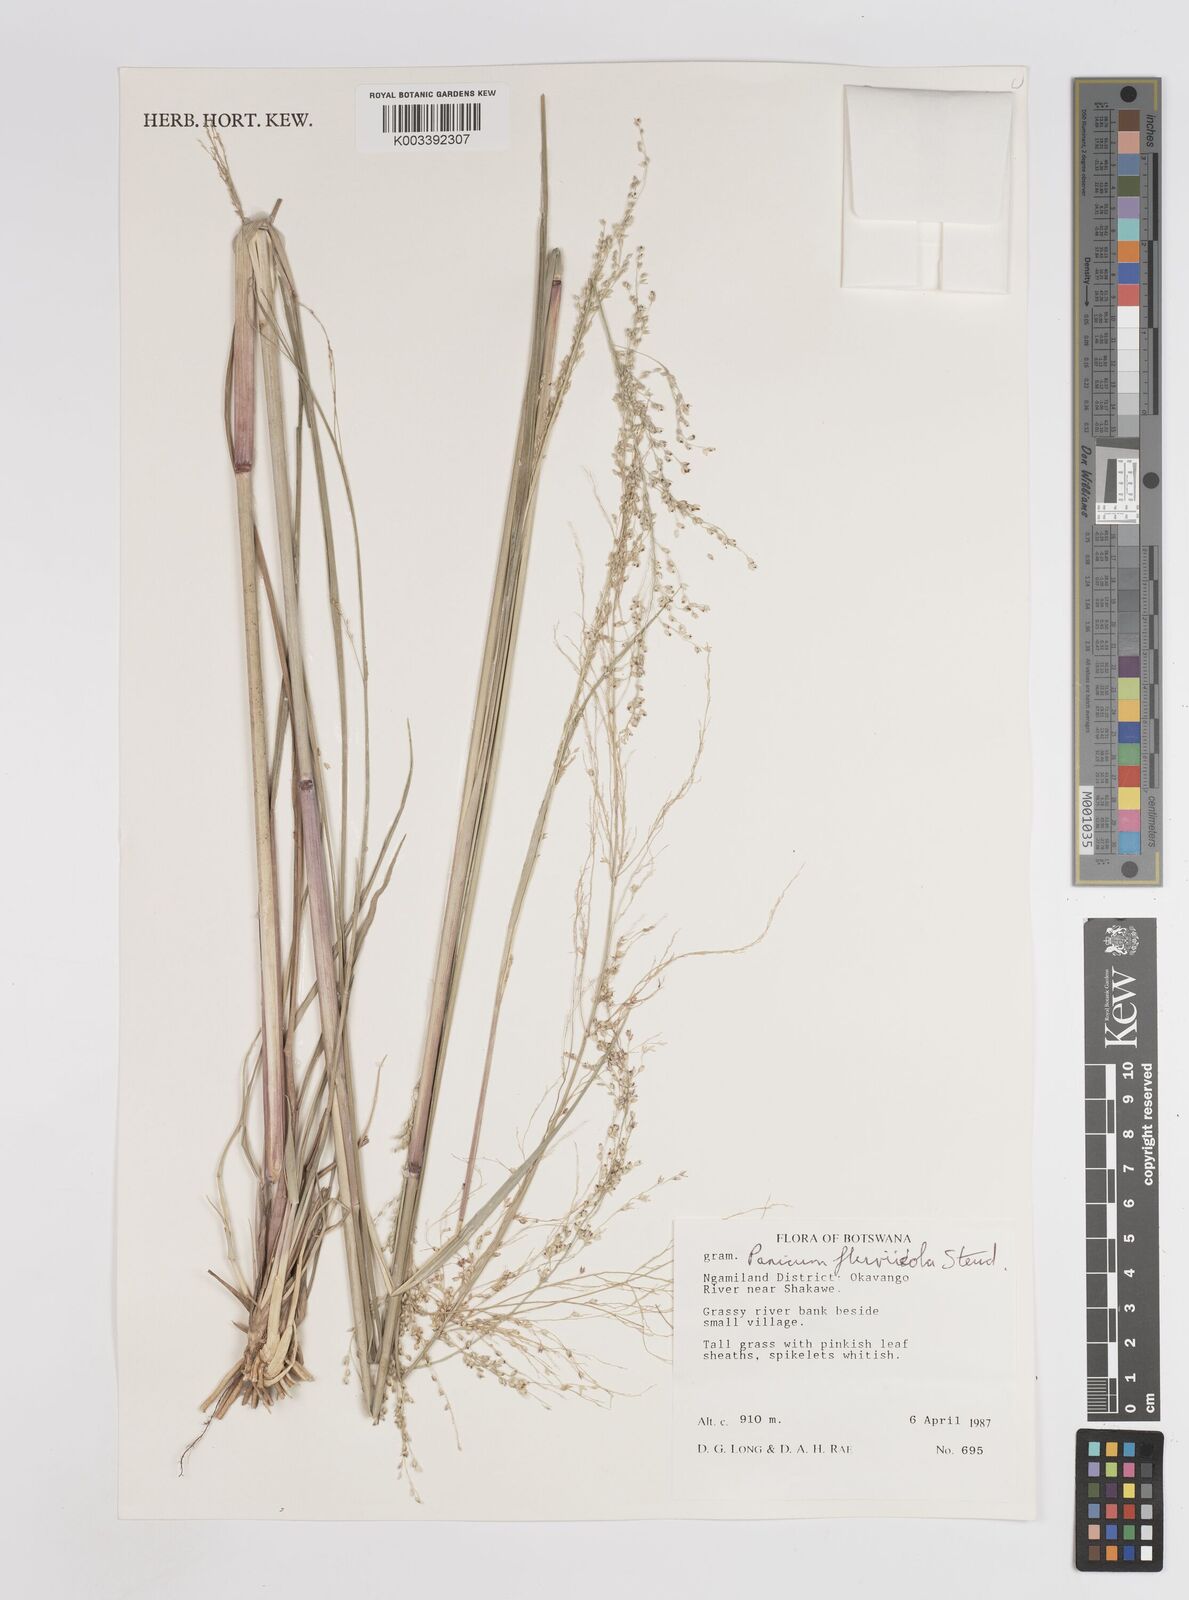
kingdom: Plantae
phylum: Tracheophyta
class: Liliopsida
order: Poales
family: Poaceae
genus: Panicum
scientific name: Panicum fluviicola
